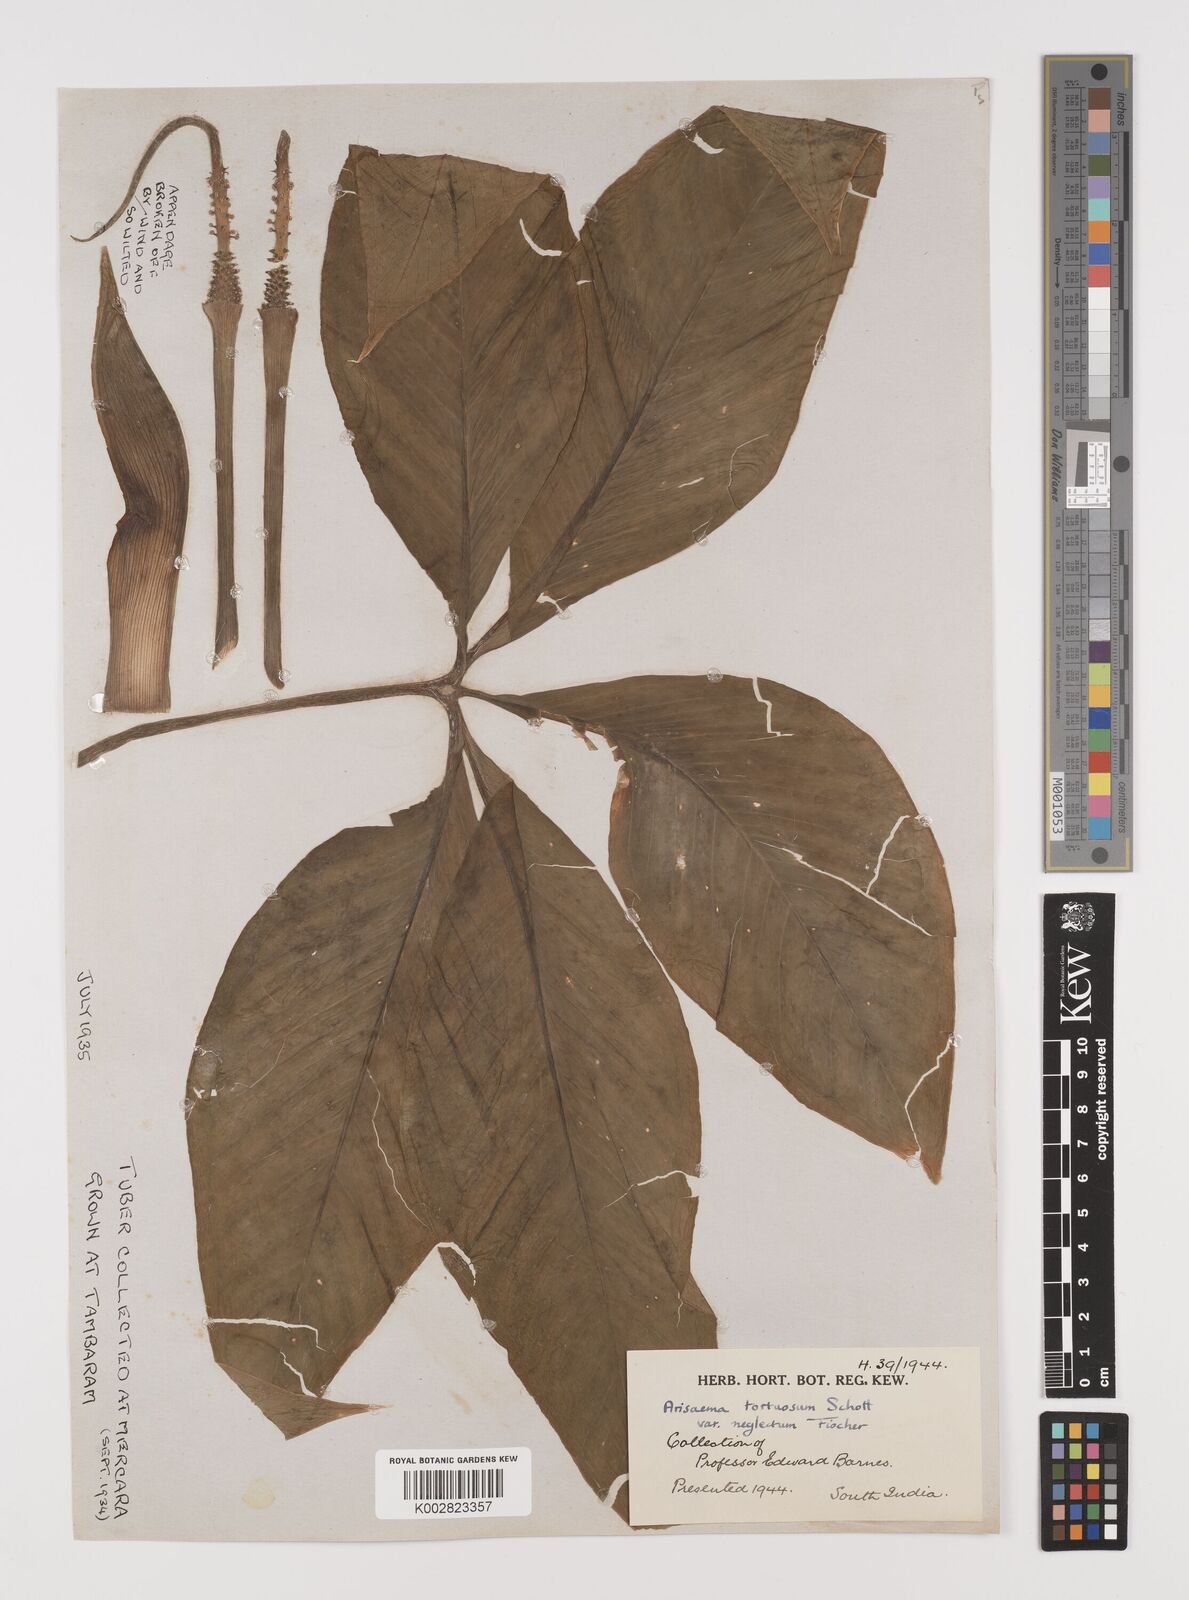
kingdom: Plantae
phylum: Tracheophyta
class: Liliopsida
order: Alismatales
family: Araceae
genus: Arisaema
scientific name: Arisaema tortuosum
